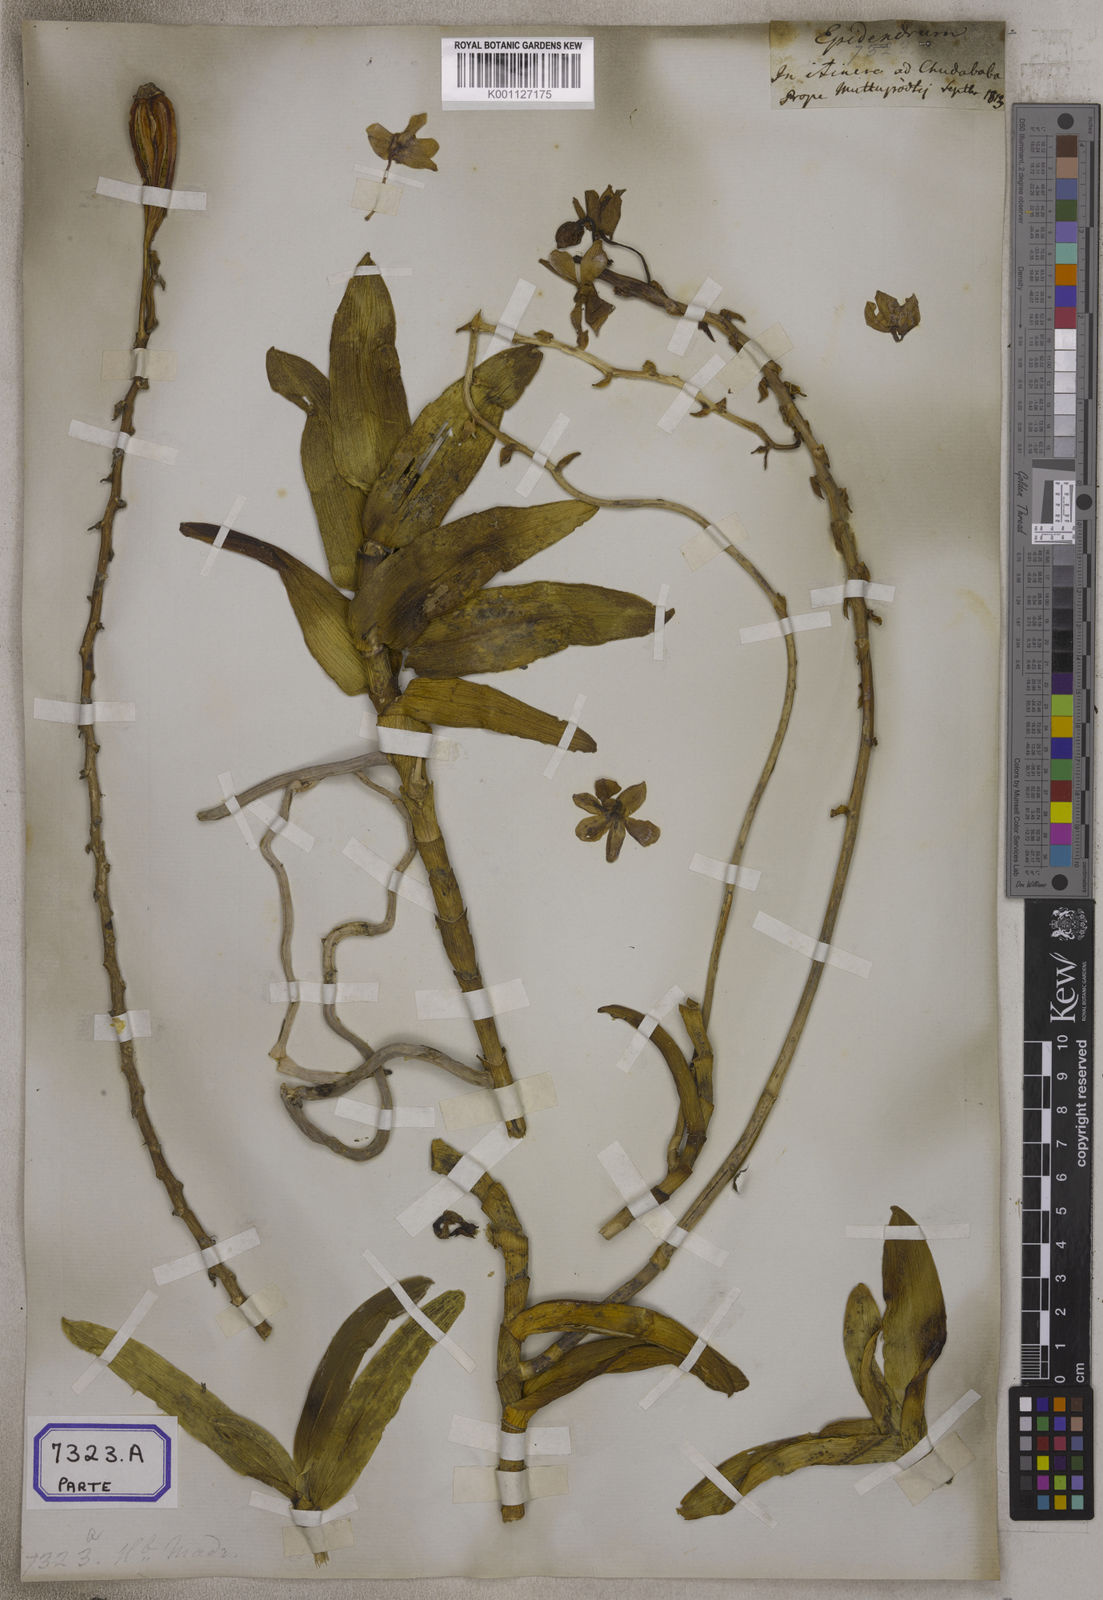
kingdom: Plantae
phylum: Tracheophyta
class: Liliopsida
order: Asparagales
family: Orchidaceae
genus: Taprobanea
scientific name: Taprobanea spathulata
